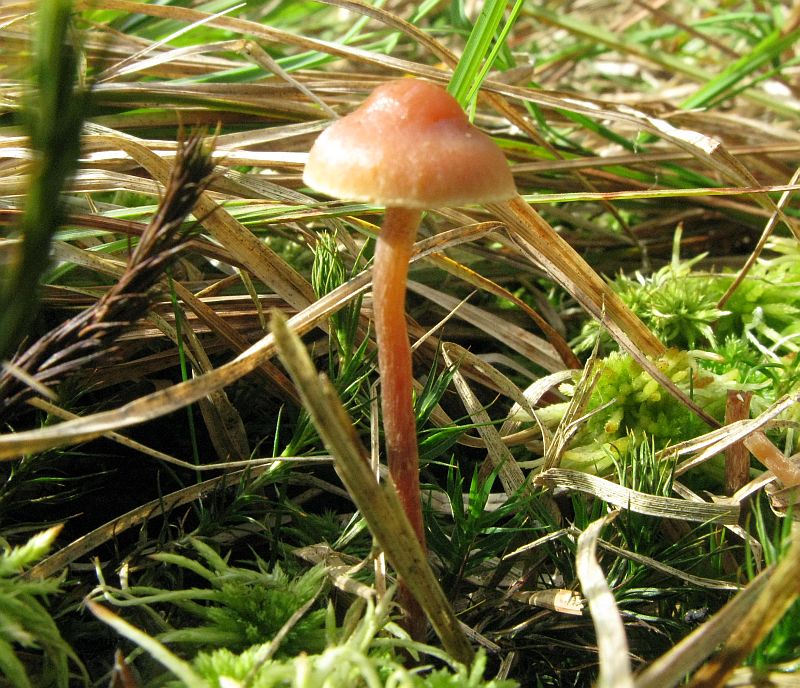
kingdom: Fungi
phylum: Basidiomycota
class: Agaricomycetes
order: Agaricales
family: Strophariaceae
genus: Bogbodia
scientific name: Bogbodia uda
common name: tørve-svovlhat
